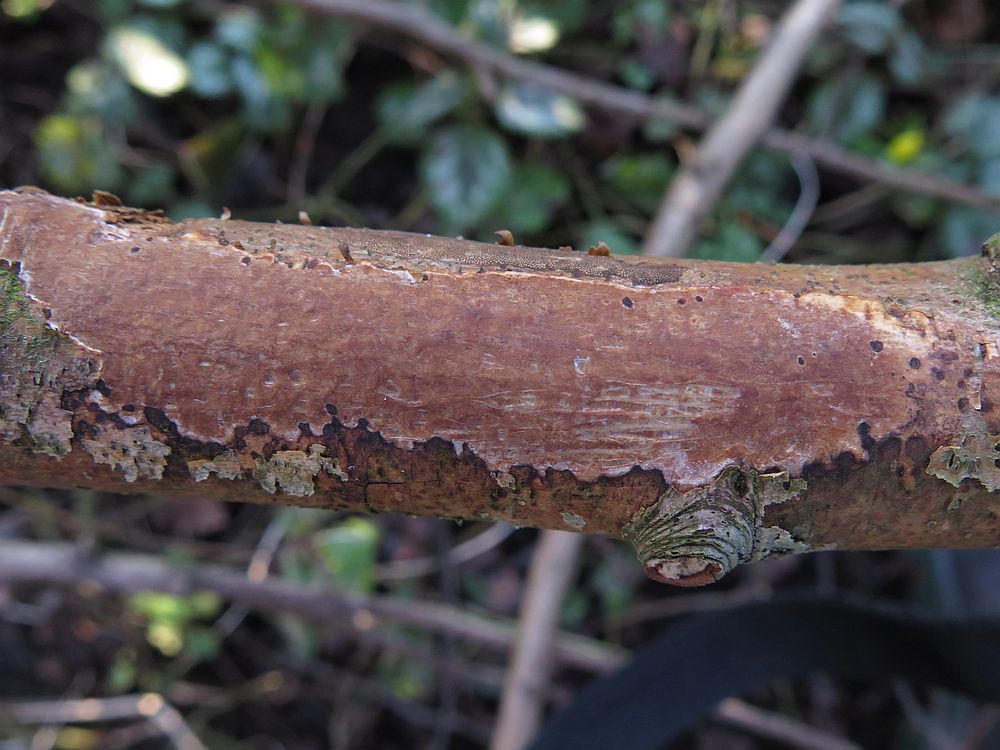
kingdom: Fungi
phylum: Basidiomycota
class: Agaricomycetes
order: Corticiales
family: Vuilleminiaceae
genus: Vuilleminia
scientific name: Vuilleminia cystidiata
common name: tjørne-barksprænger
